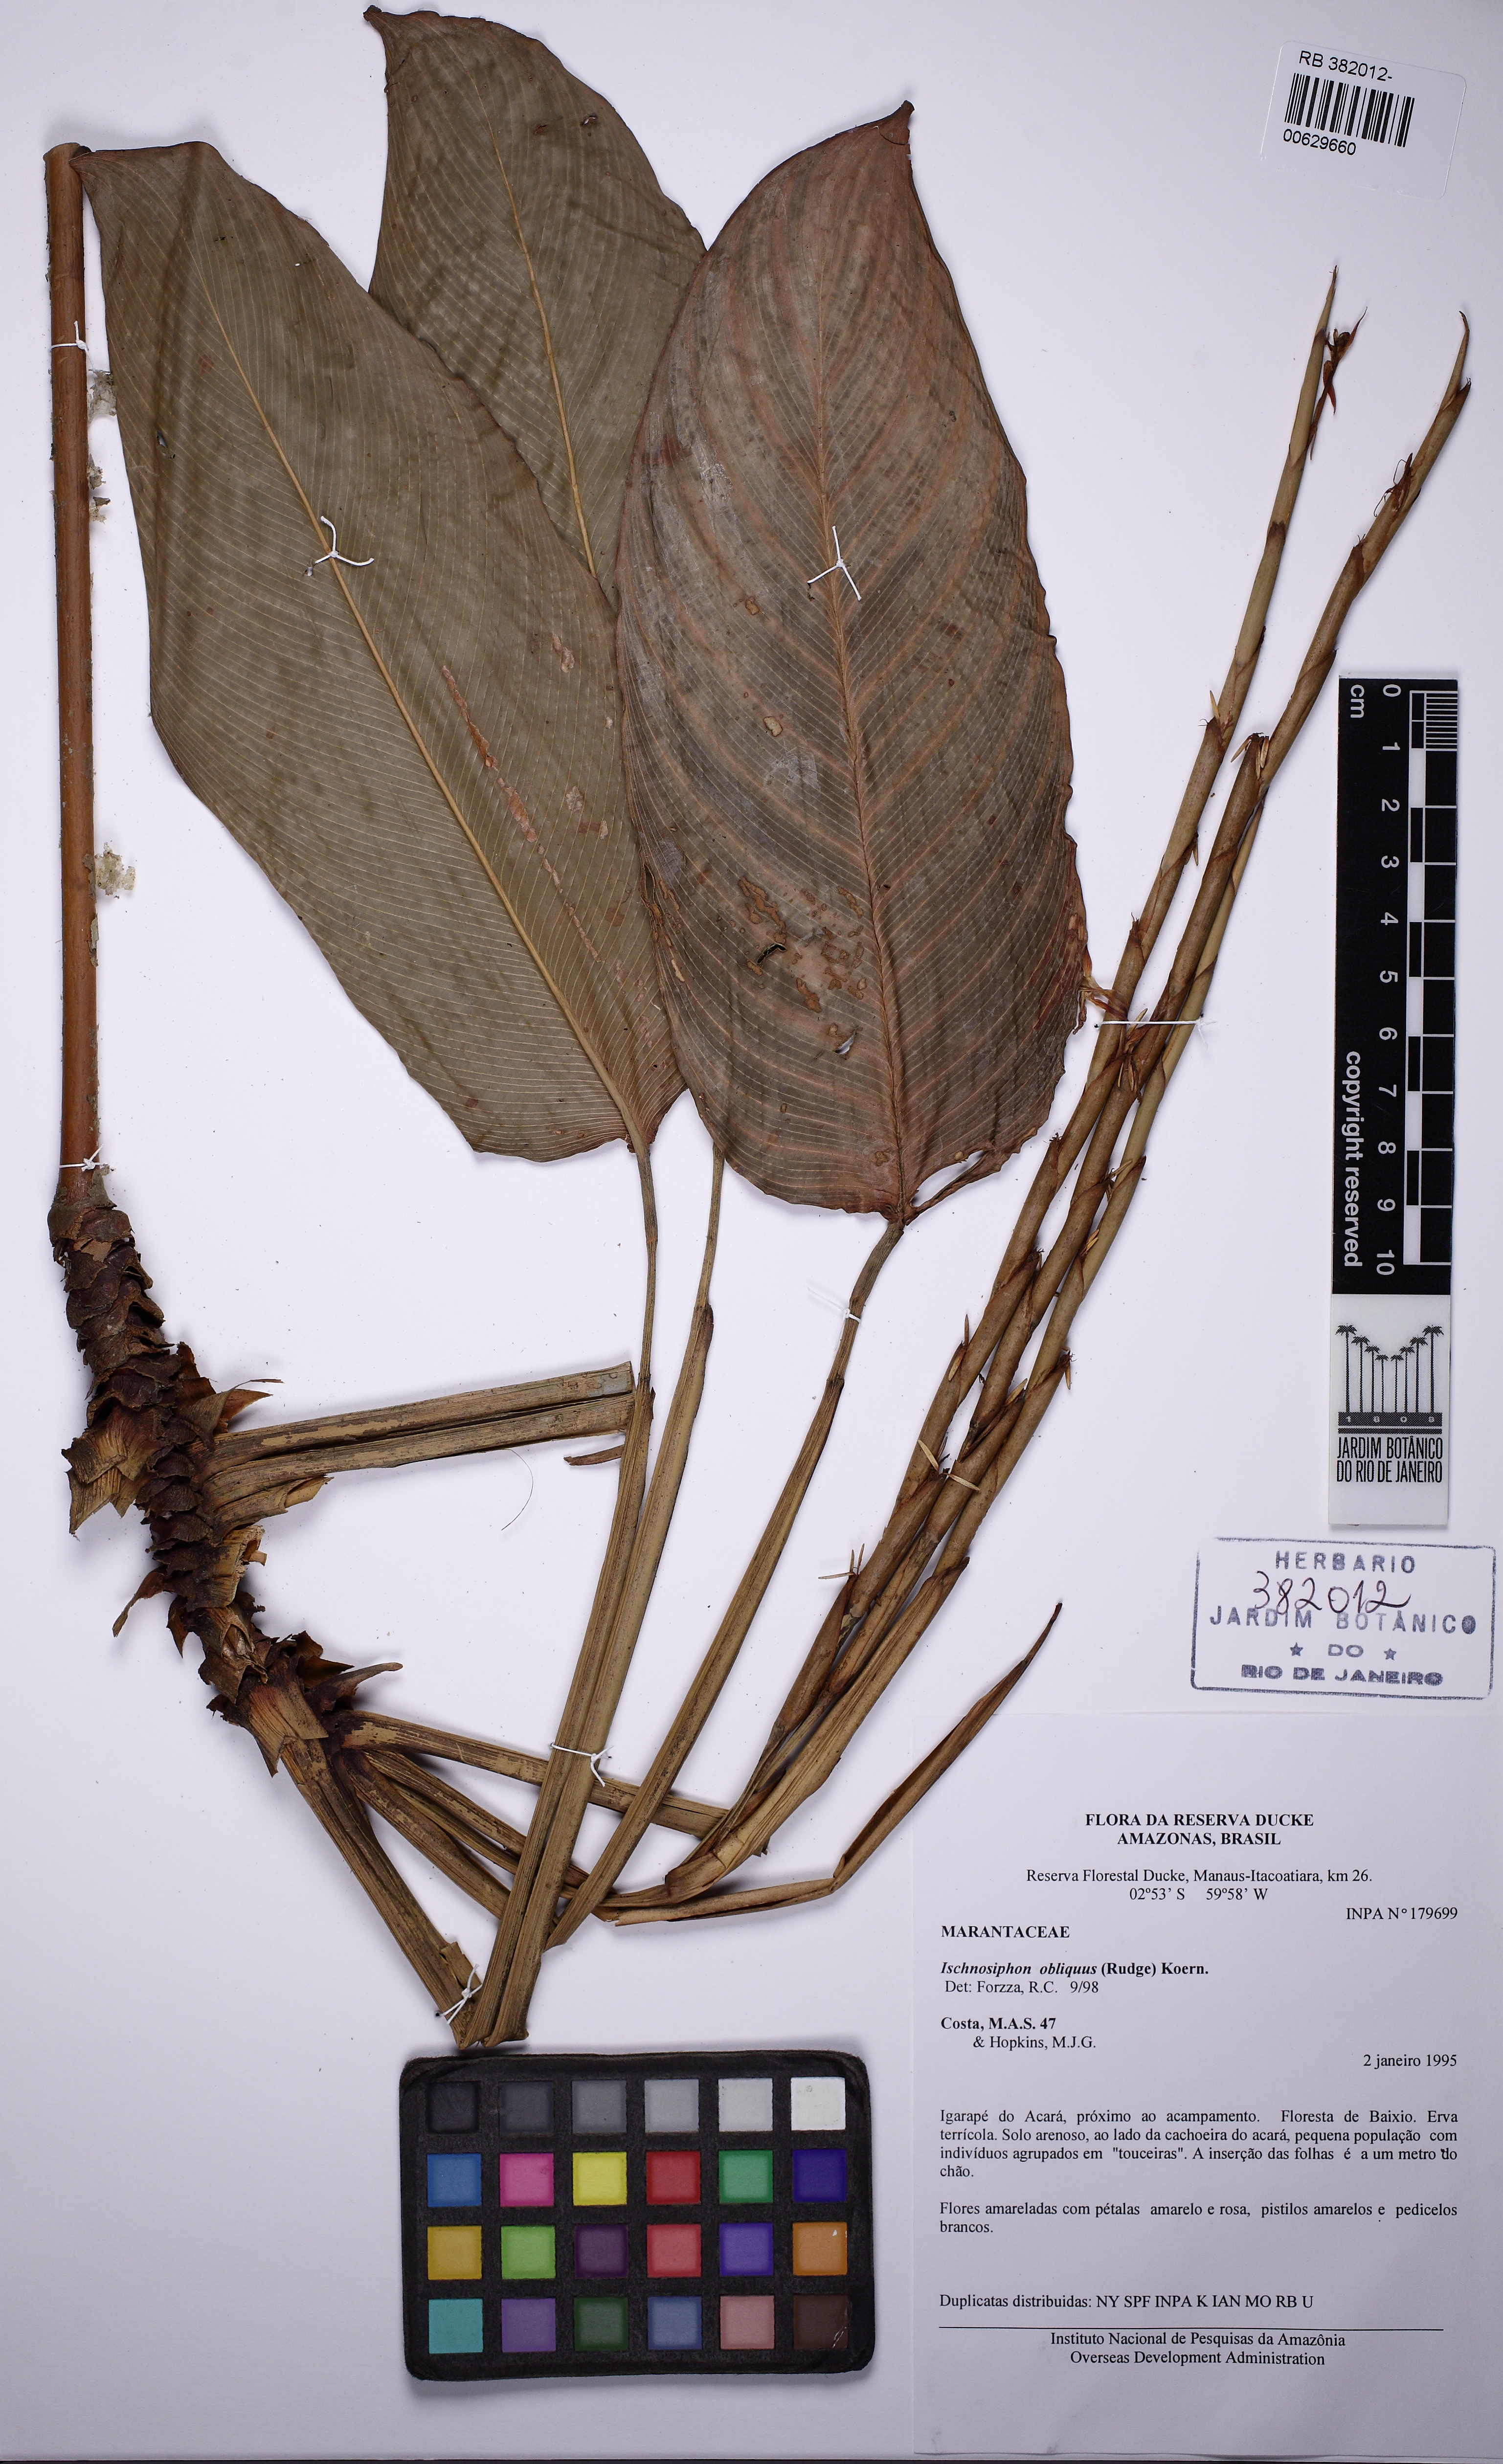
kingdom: Plantae
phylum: Tracheophyta
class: Liliopsida
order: Zingiberales
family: Marantaceae
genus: Ischnosiphon
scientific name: Ischnosiphon arouma
